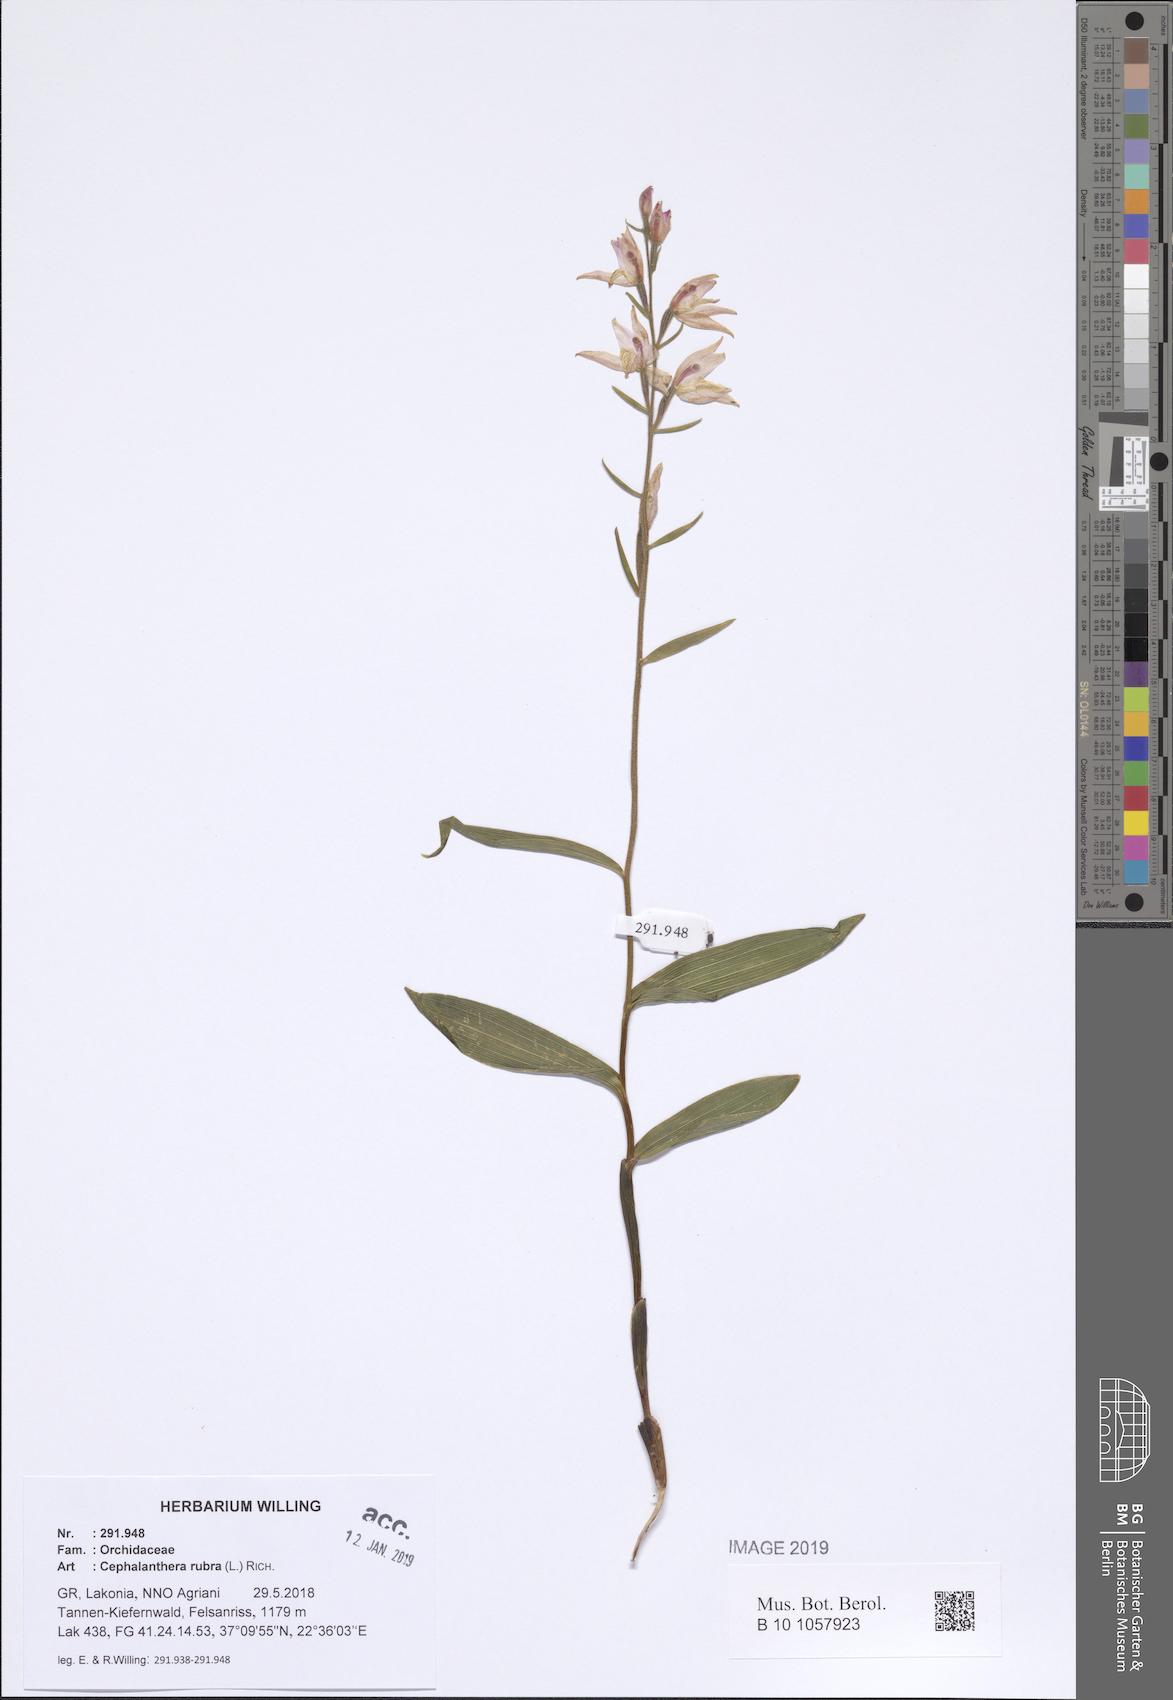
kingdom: Plantae
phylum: Tracheophyta
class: Liliopsida
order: Asparagales
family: Orchidaceae
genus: Cephalanthera
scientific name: Cephalanthera rubra
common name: Red helleborine
